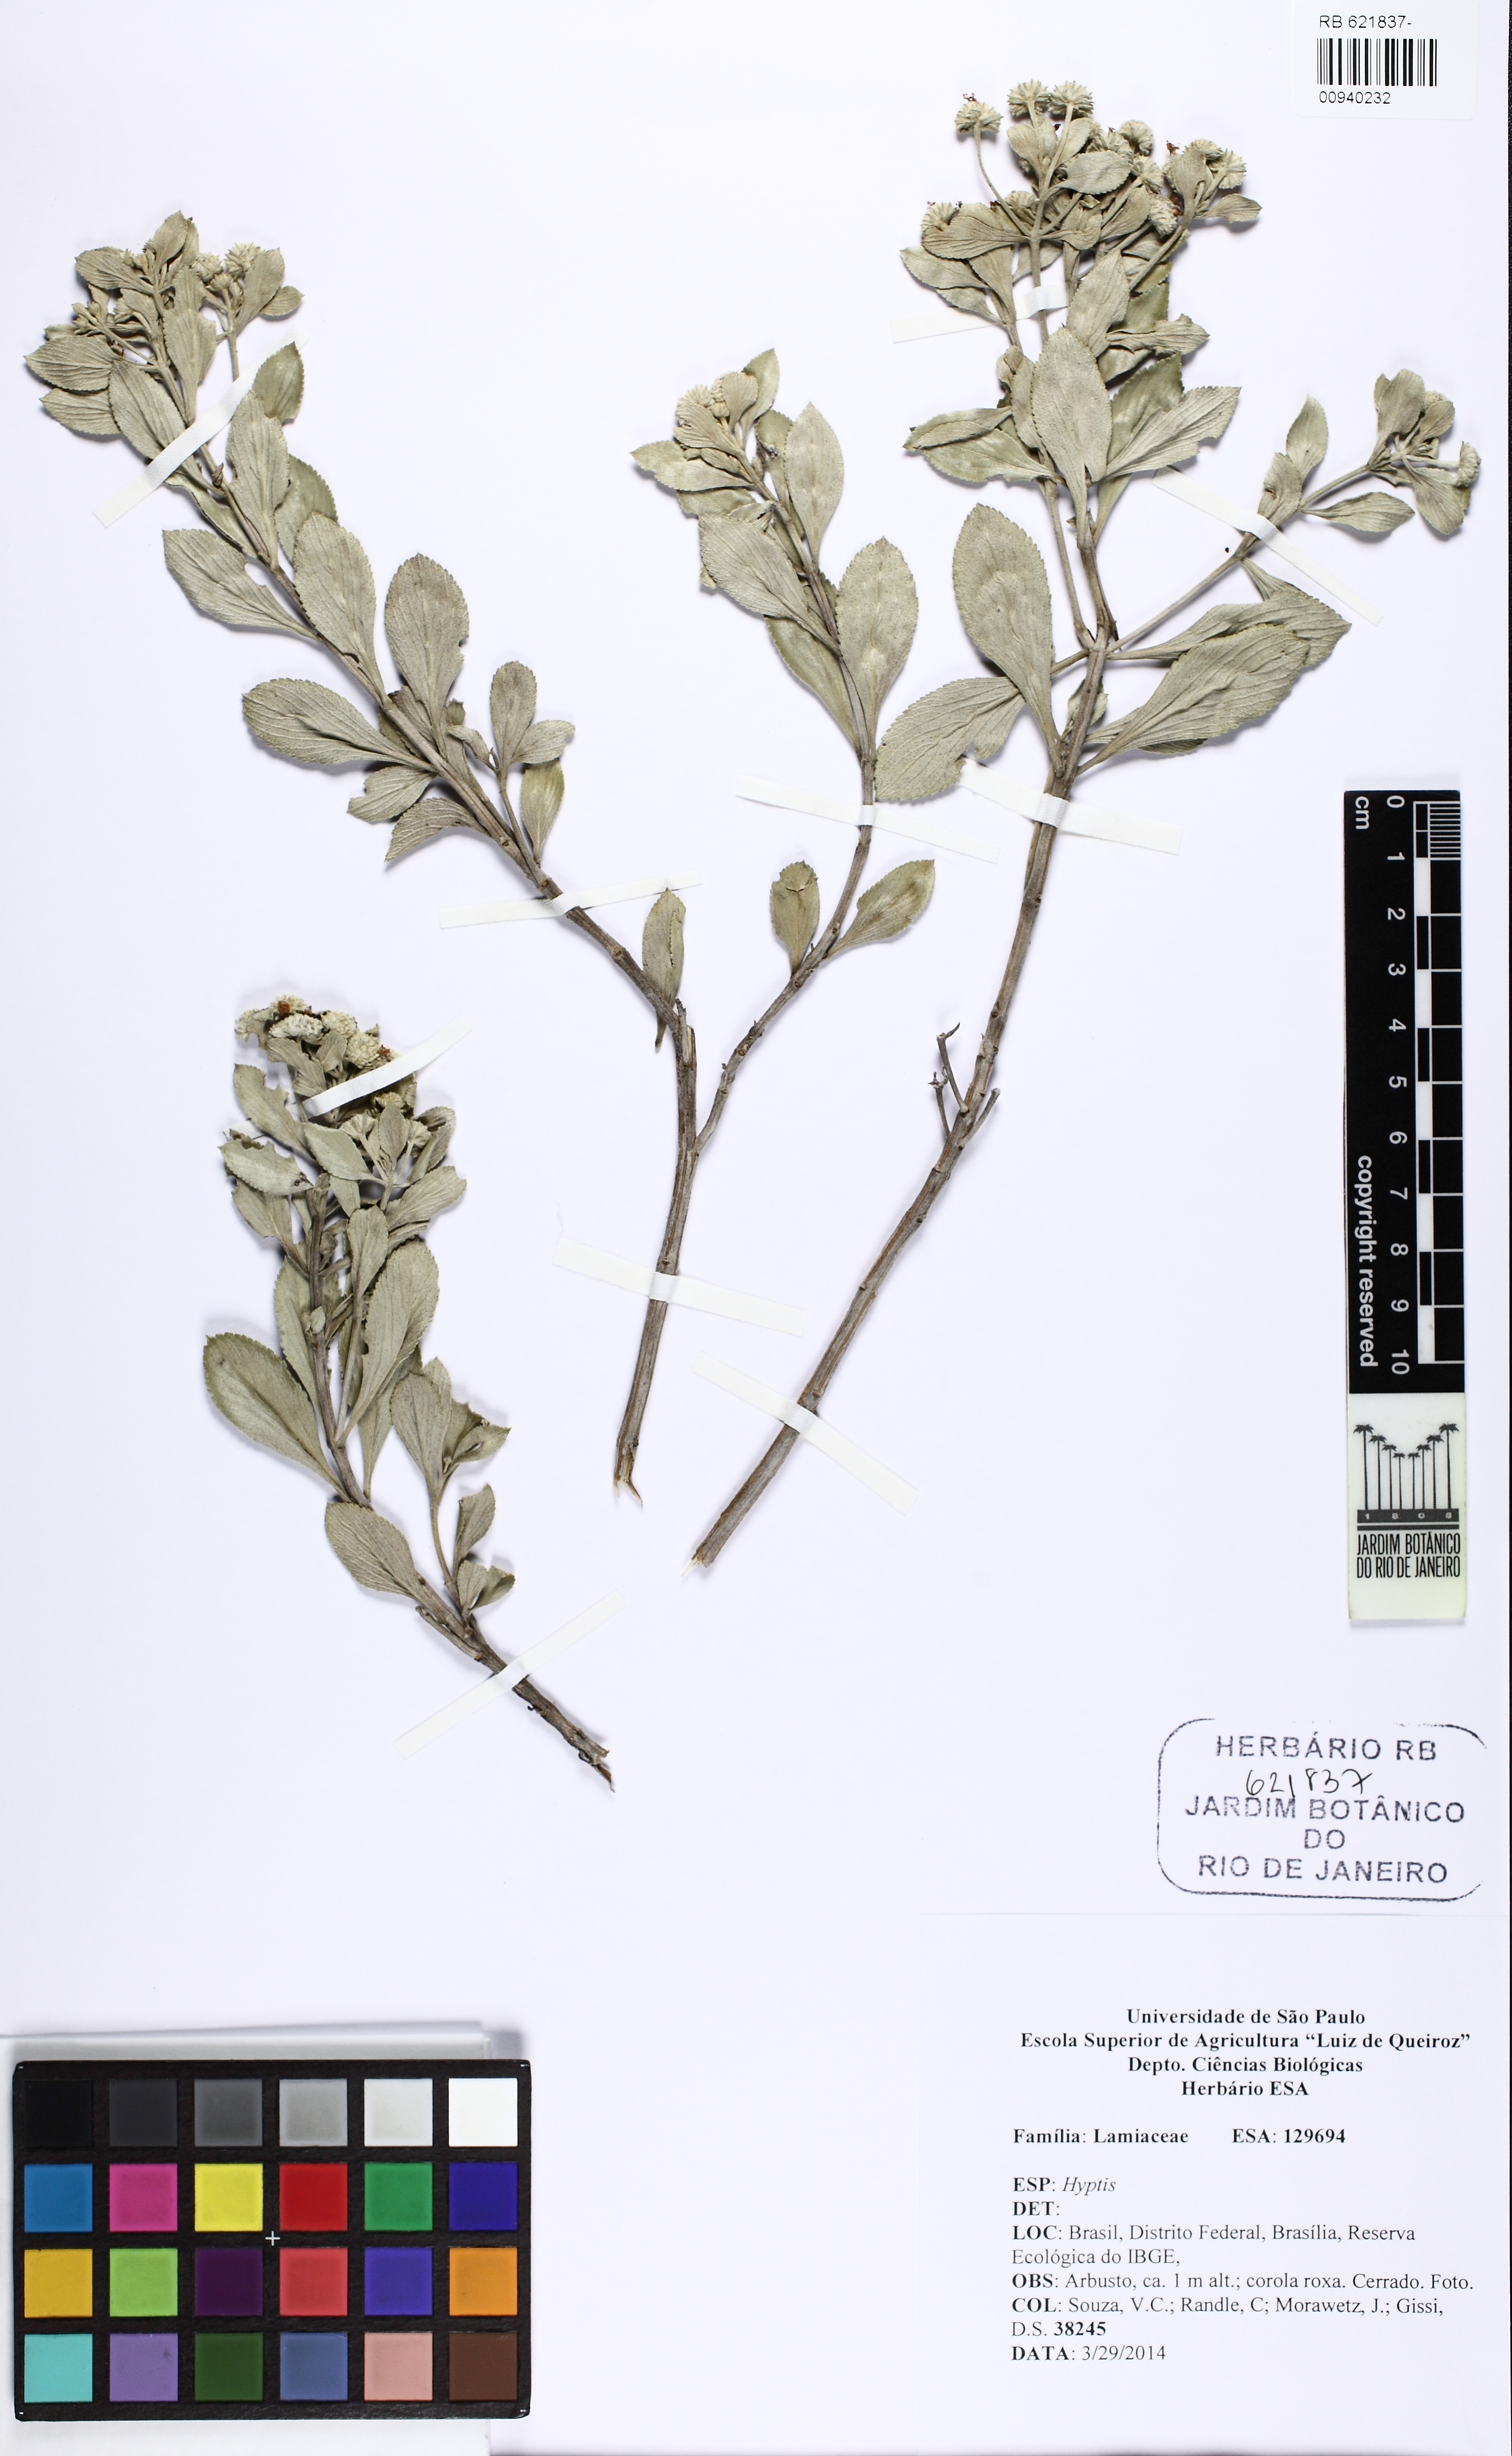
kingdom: Plantae
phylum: Tracheophyta
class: Magnoliopsida
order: Lamiales
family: Lamiaceae
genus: Hyptis
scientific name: Hyptis
